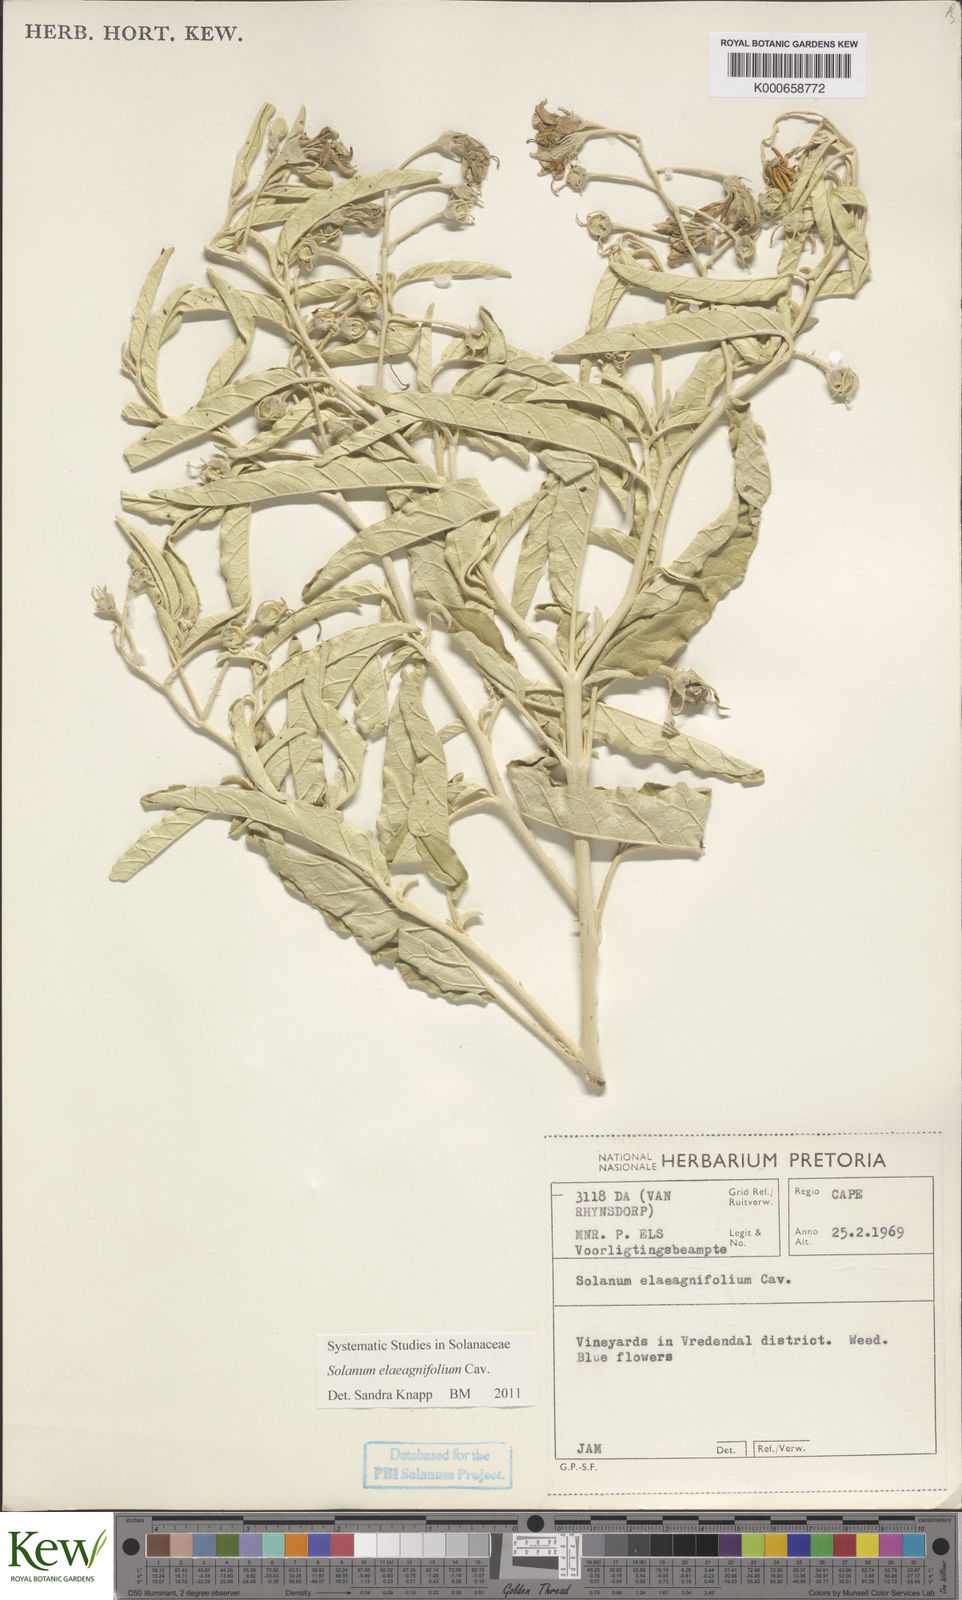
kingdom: Plantae
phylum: Tracheophyta
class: Magnoliopsida
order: Solanales
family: Solanaceae
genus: Solanum
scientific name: Solanum elaeagnifolium
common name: Silverleaf nightshade
